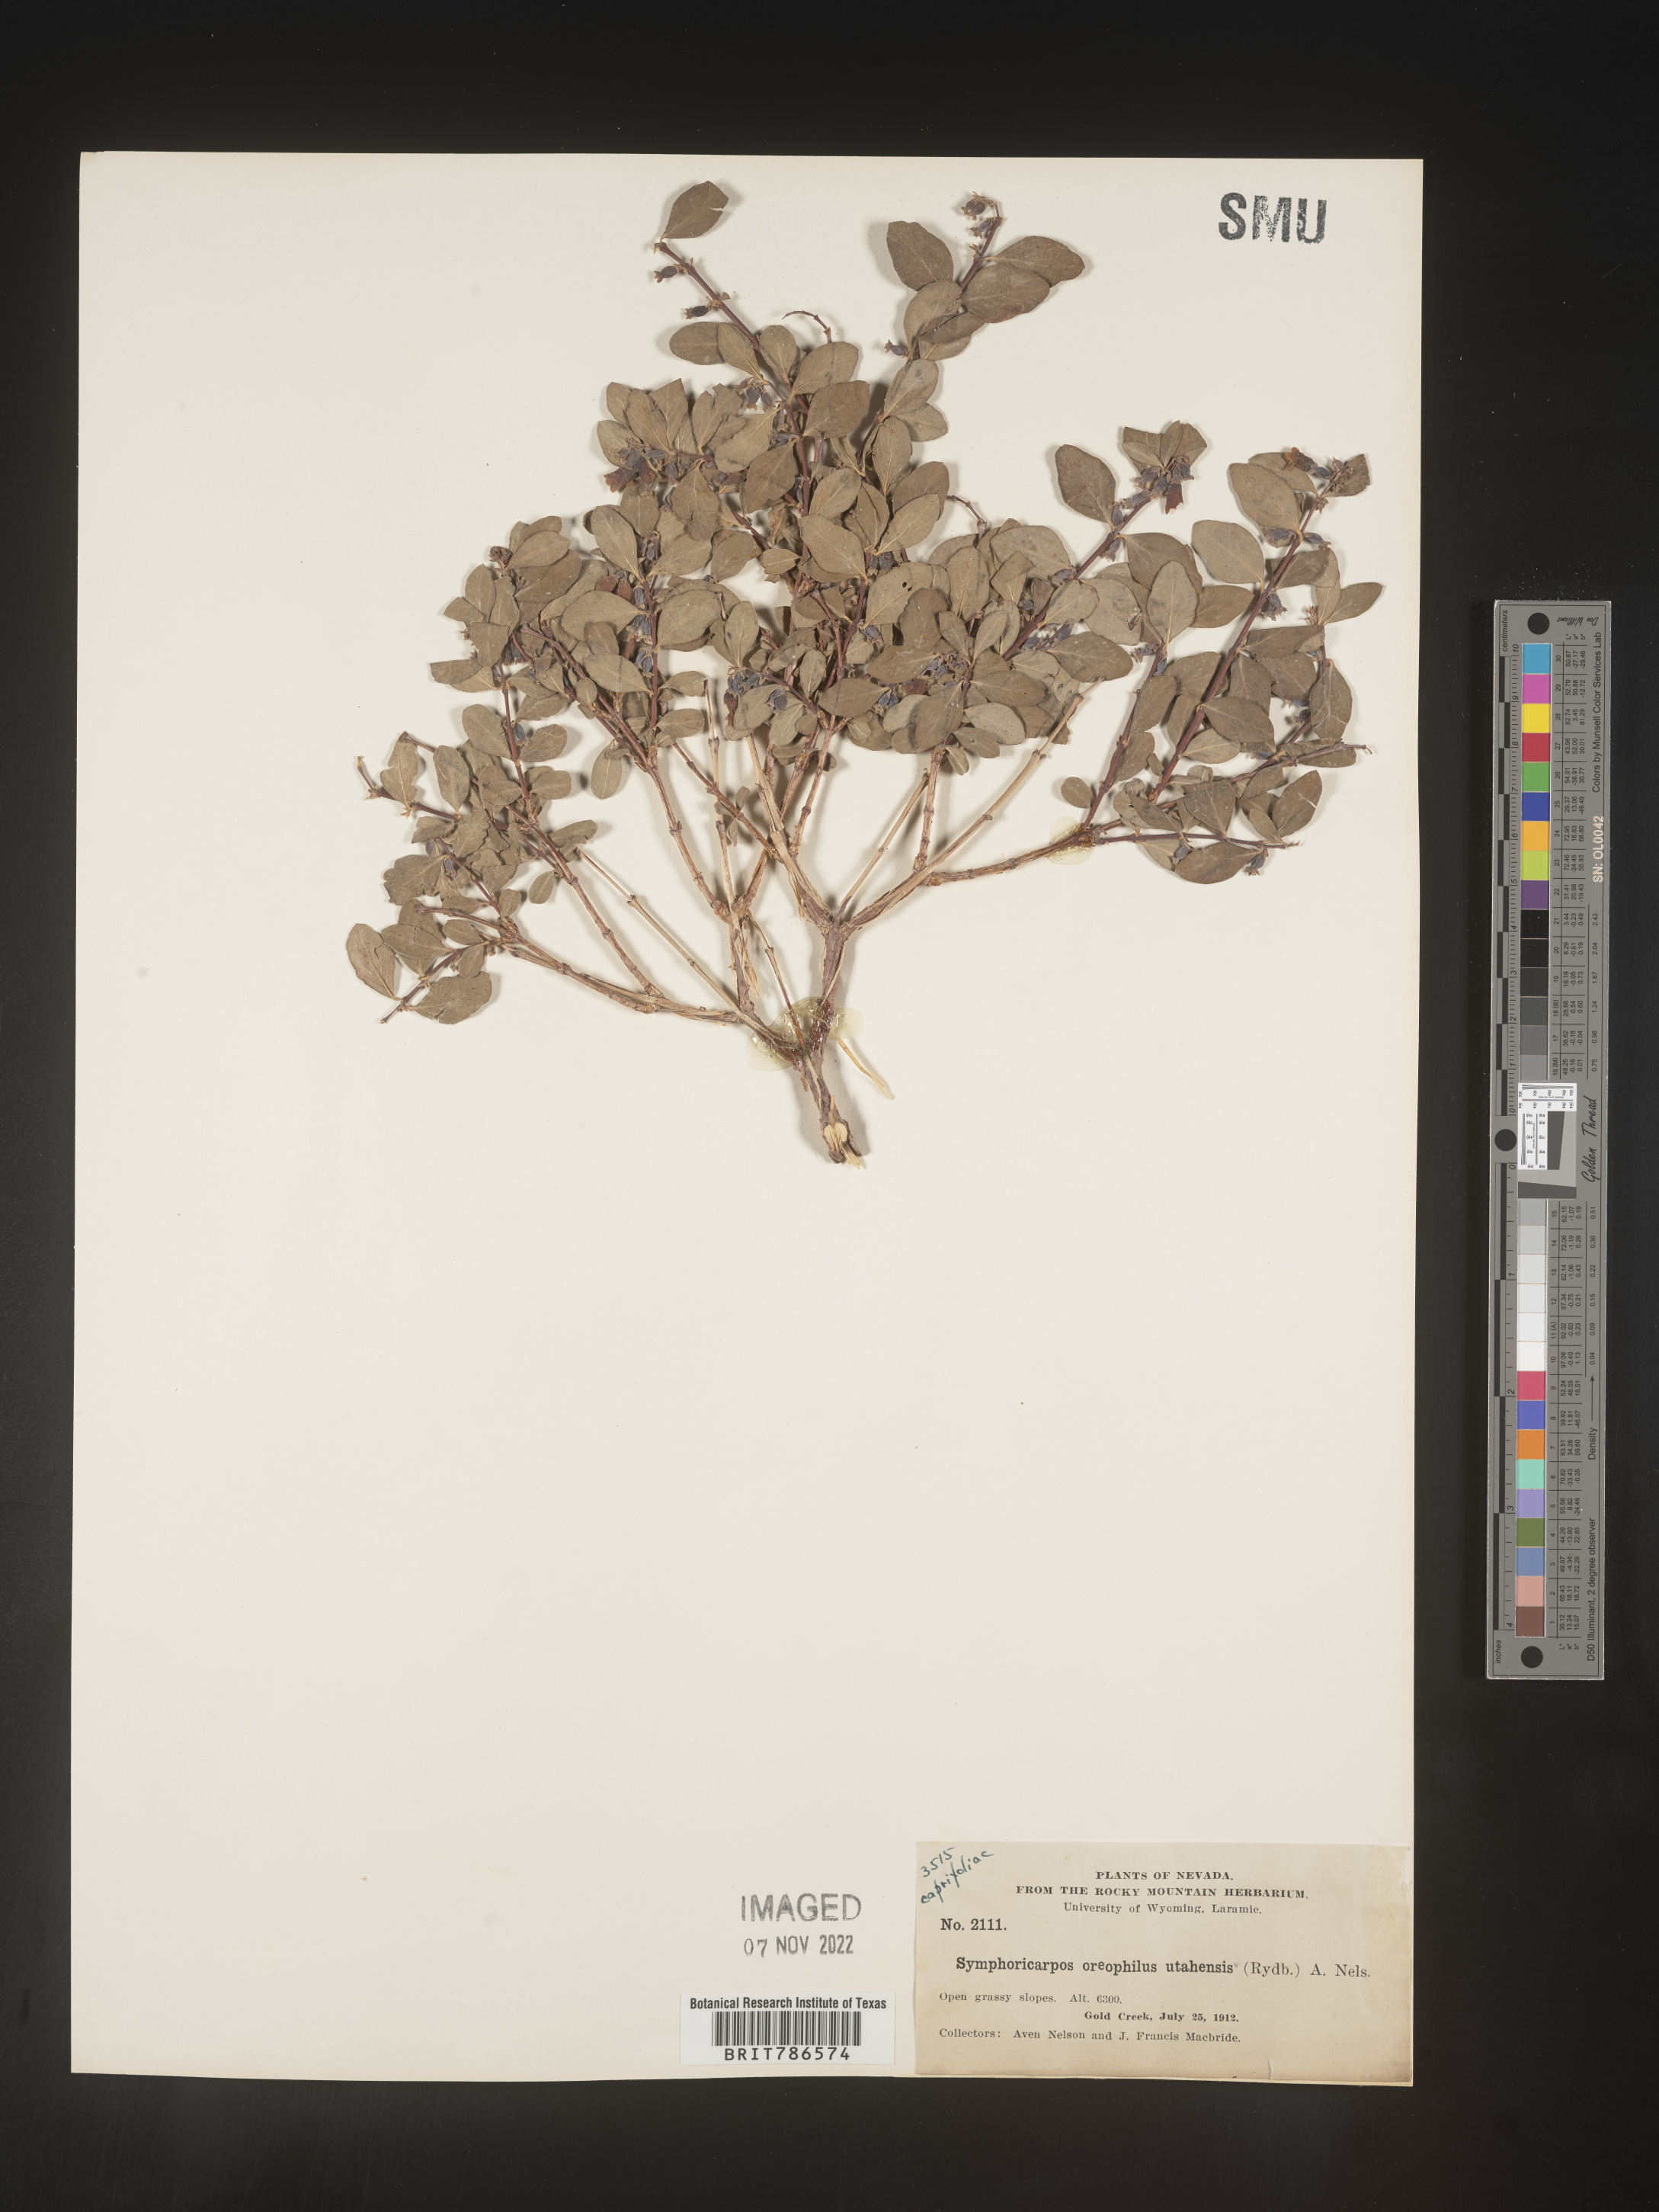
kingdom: Plantae
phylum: Tracheophyta
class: Magnoliopsida
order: Dipsacales
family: Caprifoliaceae
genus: Symphoricarpos
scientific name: Symphoricarpos oreophilus
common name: Mountain snowberry
